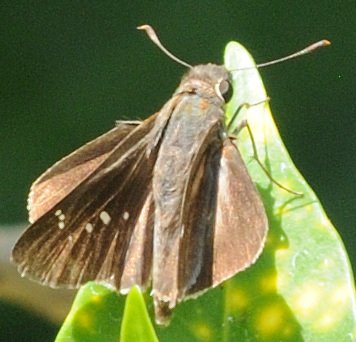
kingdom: Animalia
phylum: Arthropoda
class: Insecta
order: Lepidoptera
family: Hesperiidae
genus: Baoris
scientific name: Baoris fatuellus
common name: Long-horned Swift
